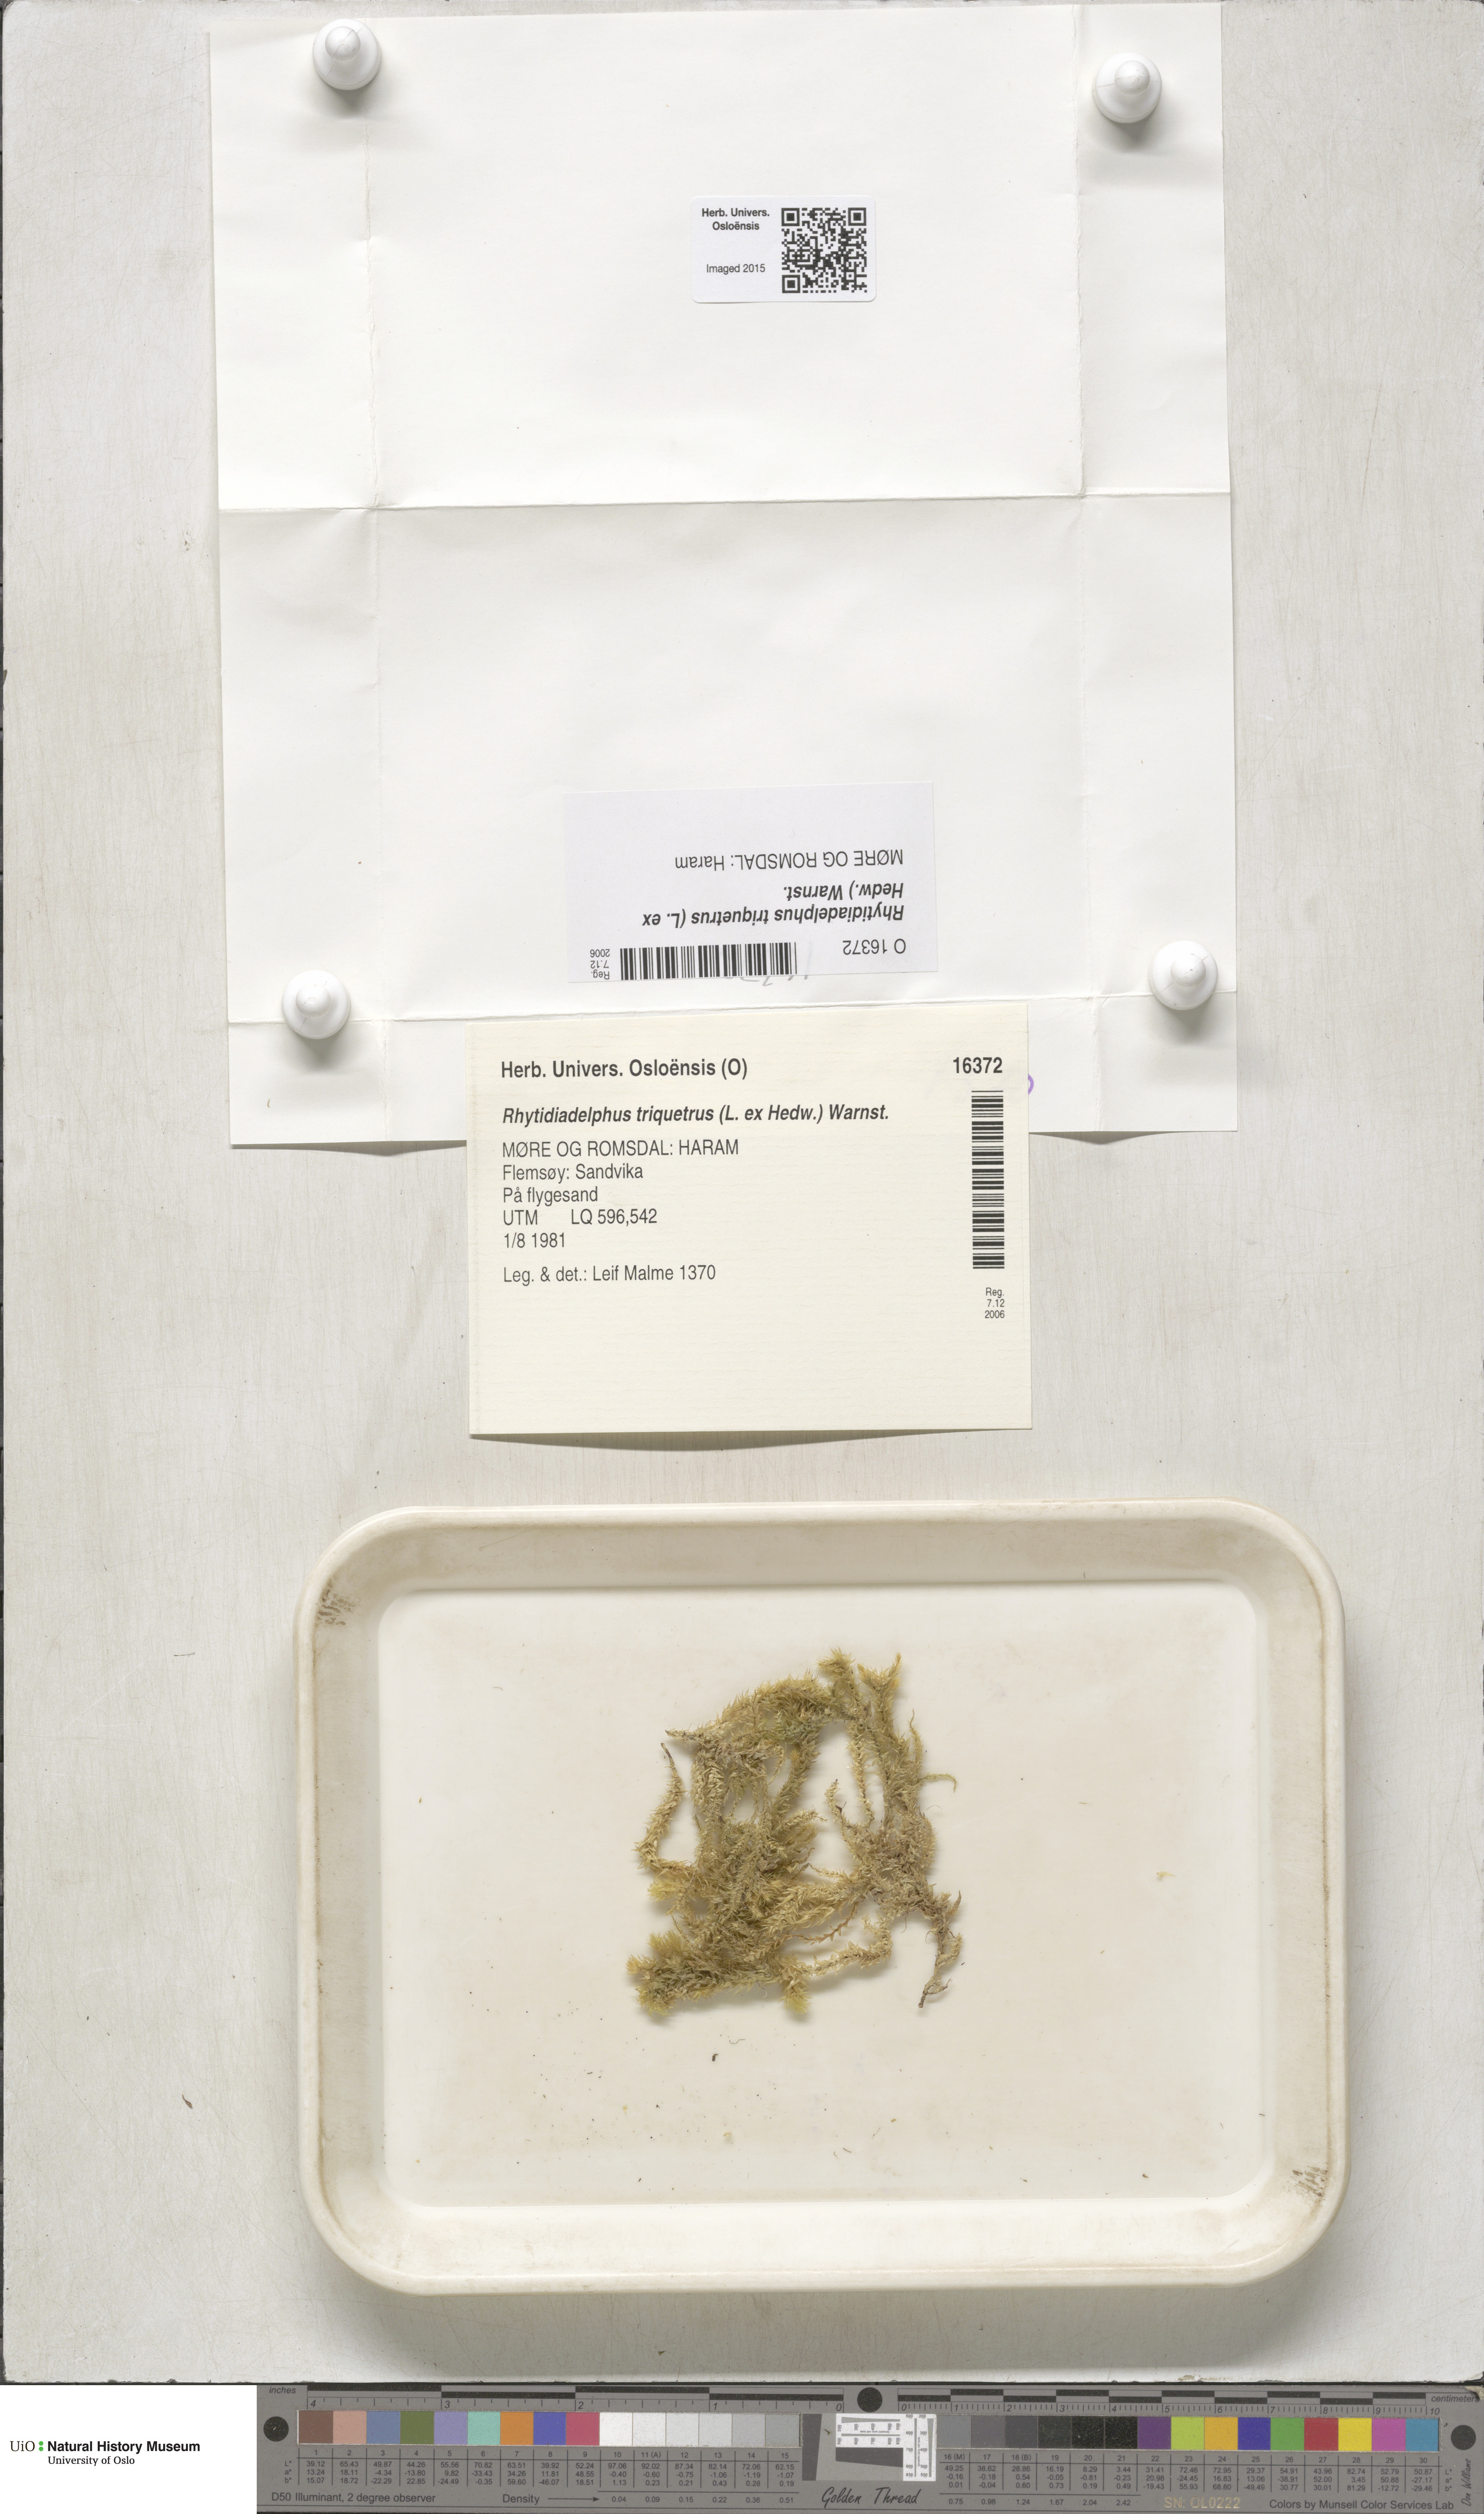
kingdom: Plantae
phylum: Bryophyta
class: Bryopsida
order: Hypnales
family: Hylocomiaceae
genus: Hylocomiadelphus
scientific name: Hylocomiadelphus triquetrus
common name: Rough goose neck moss
